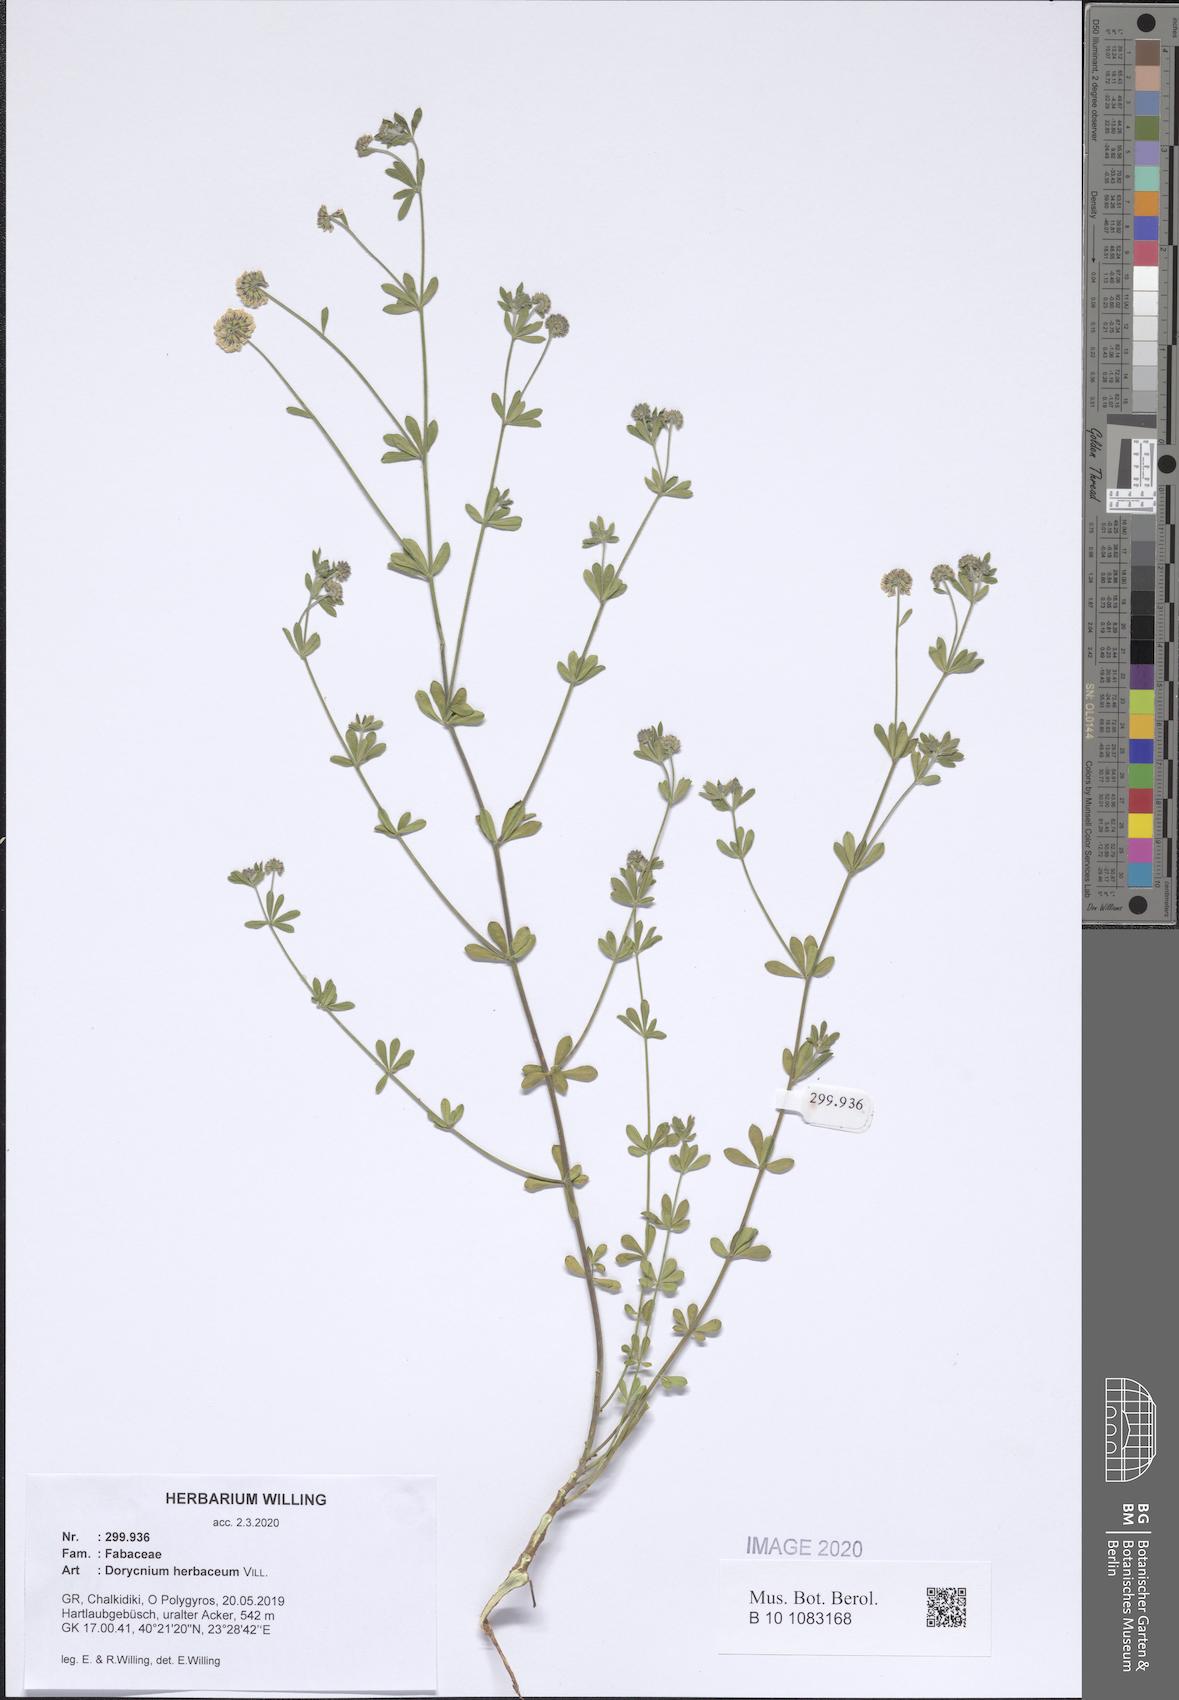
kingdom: Plantae
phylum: Tracheophyta
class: Magnoliopsida
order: Fabales
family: Fabaceae
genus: Lotus
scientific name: Lotus herbaceus
